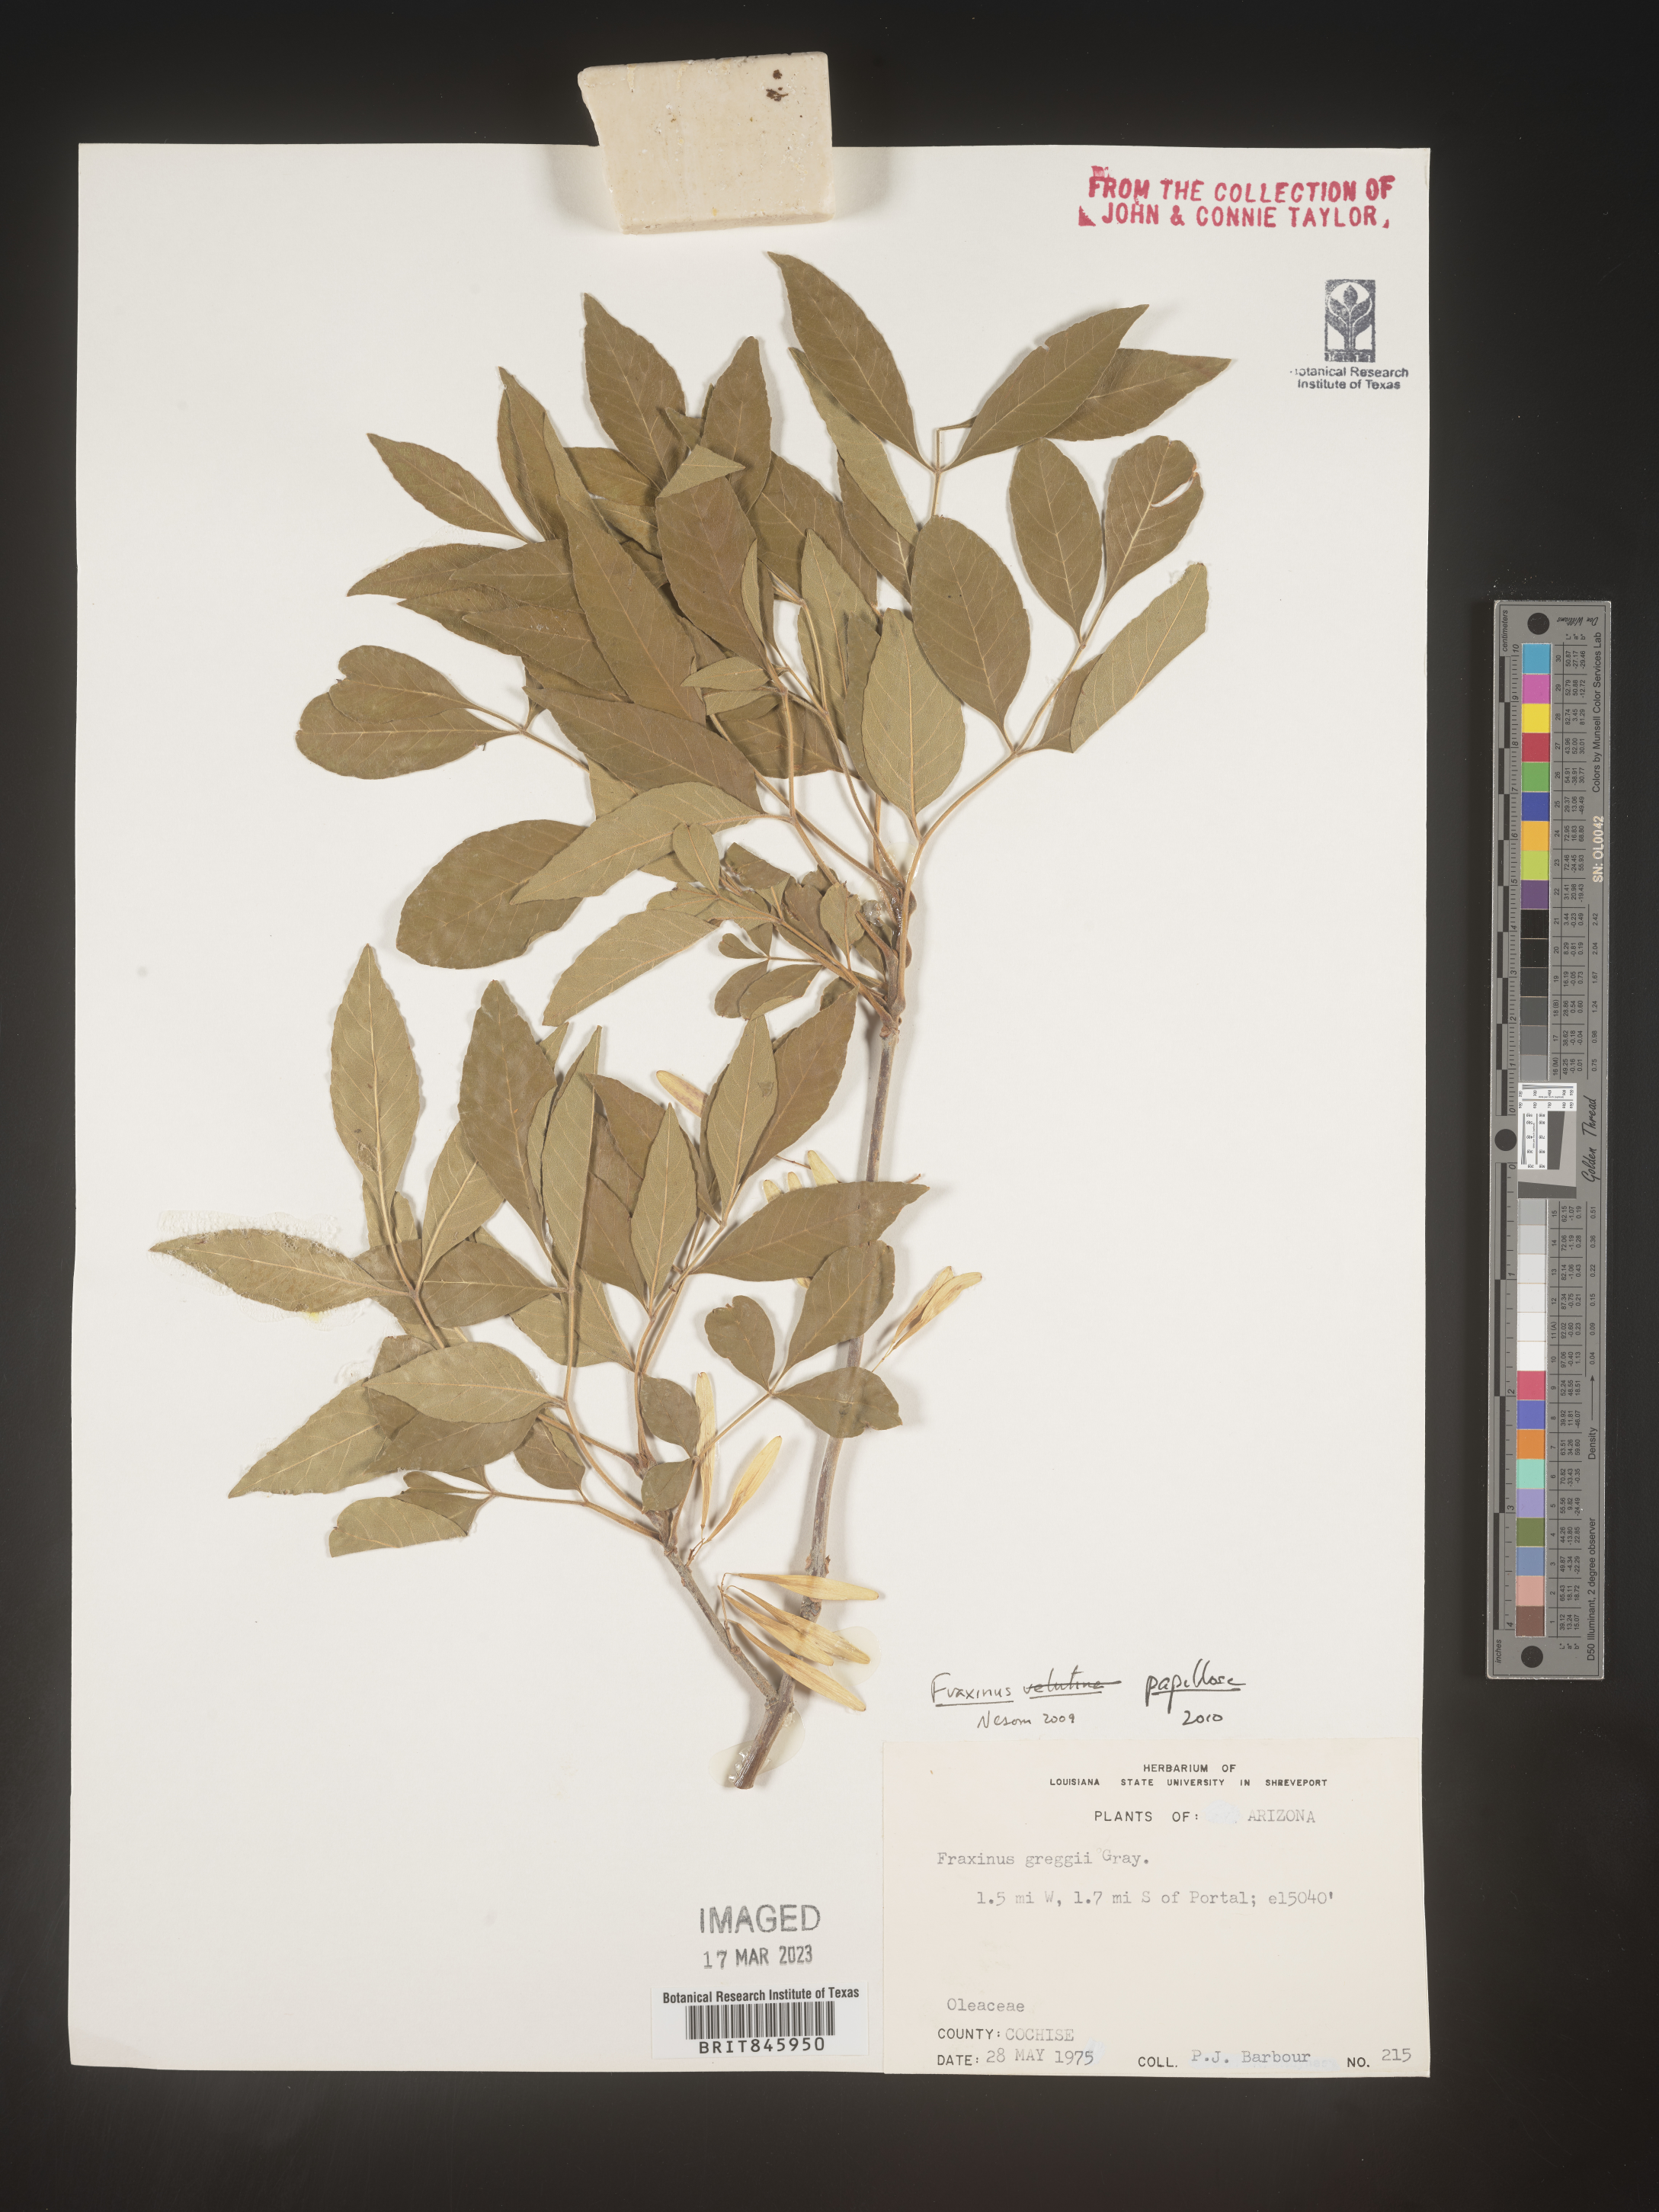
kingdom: Plantae
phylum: Tracheophyta
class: Magnoliopsida
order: Lamiales
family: Oleaceae
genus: Fraxinus
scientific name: Fraxinus
